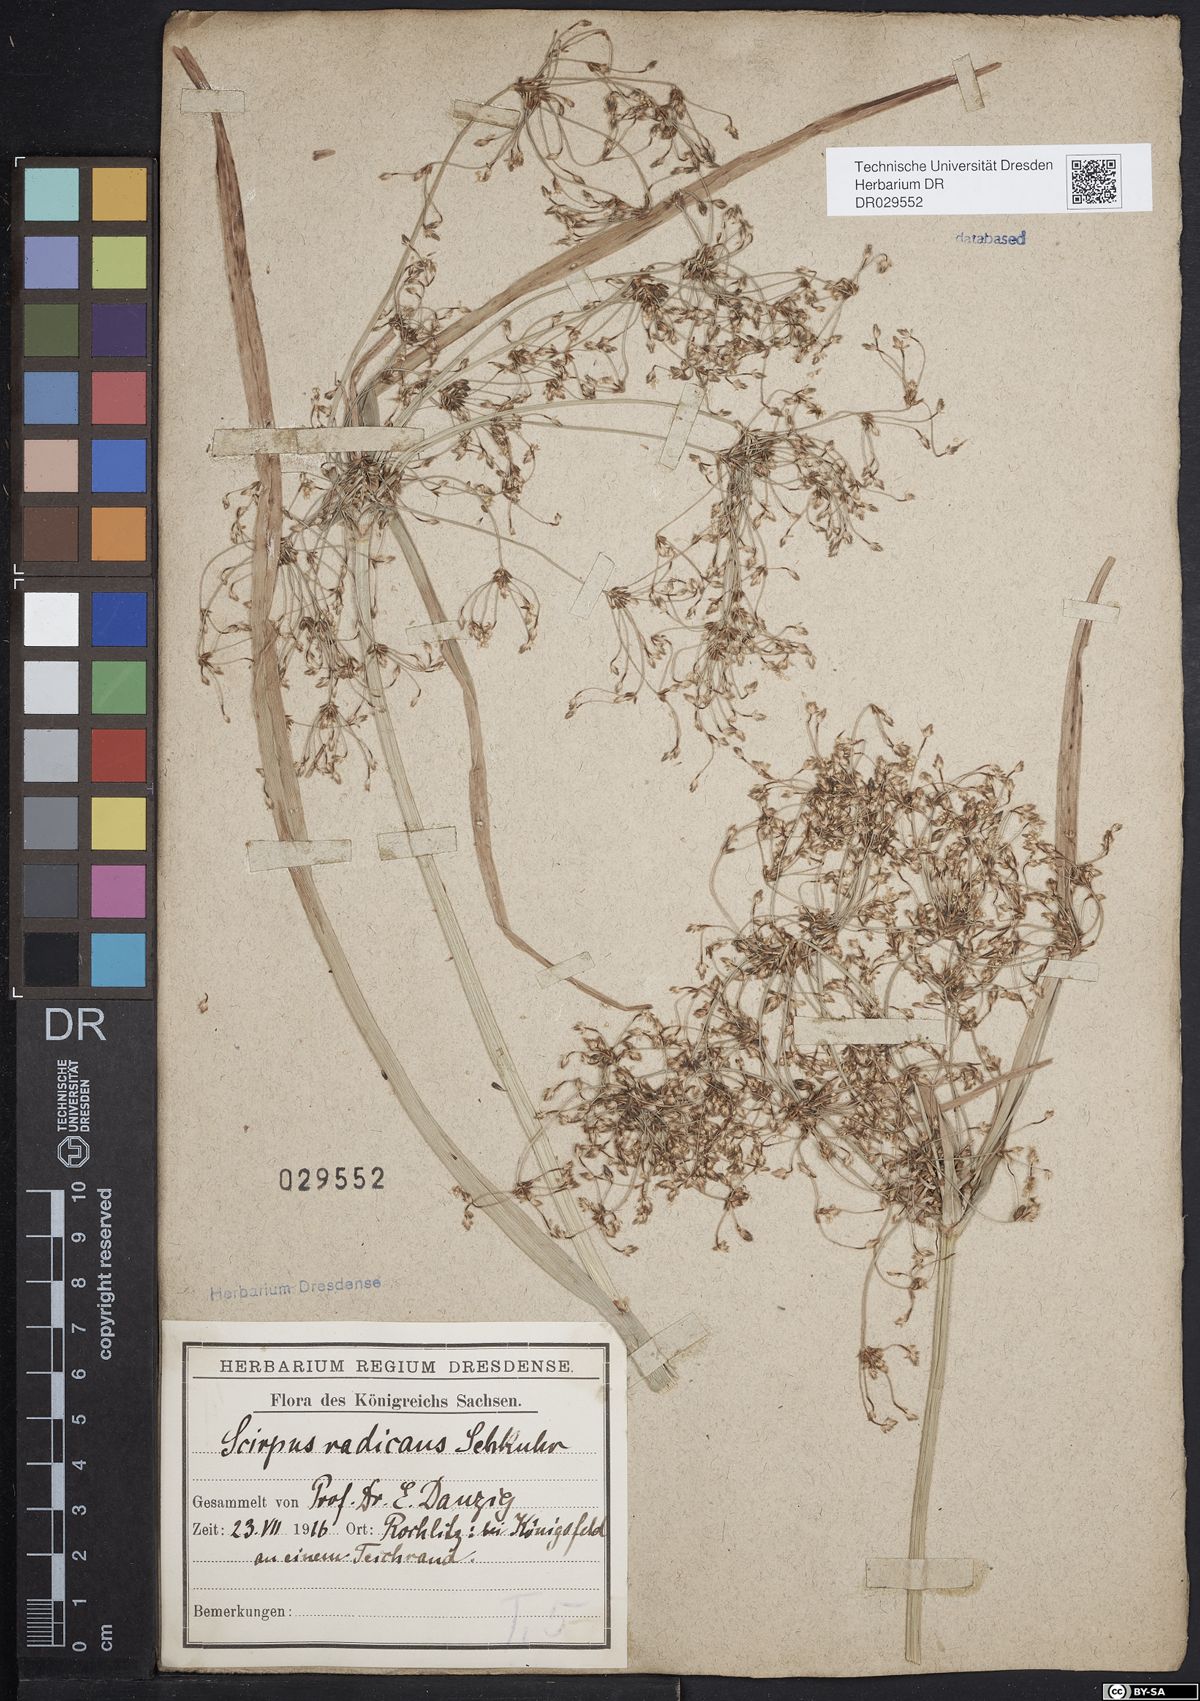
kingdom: Plantae
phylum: Tracheophyta
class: Liliopsida
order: Poales
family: Cyperaceae
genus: Scirpus
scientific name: Scirpus radicans
